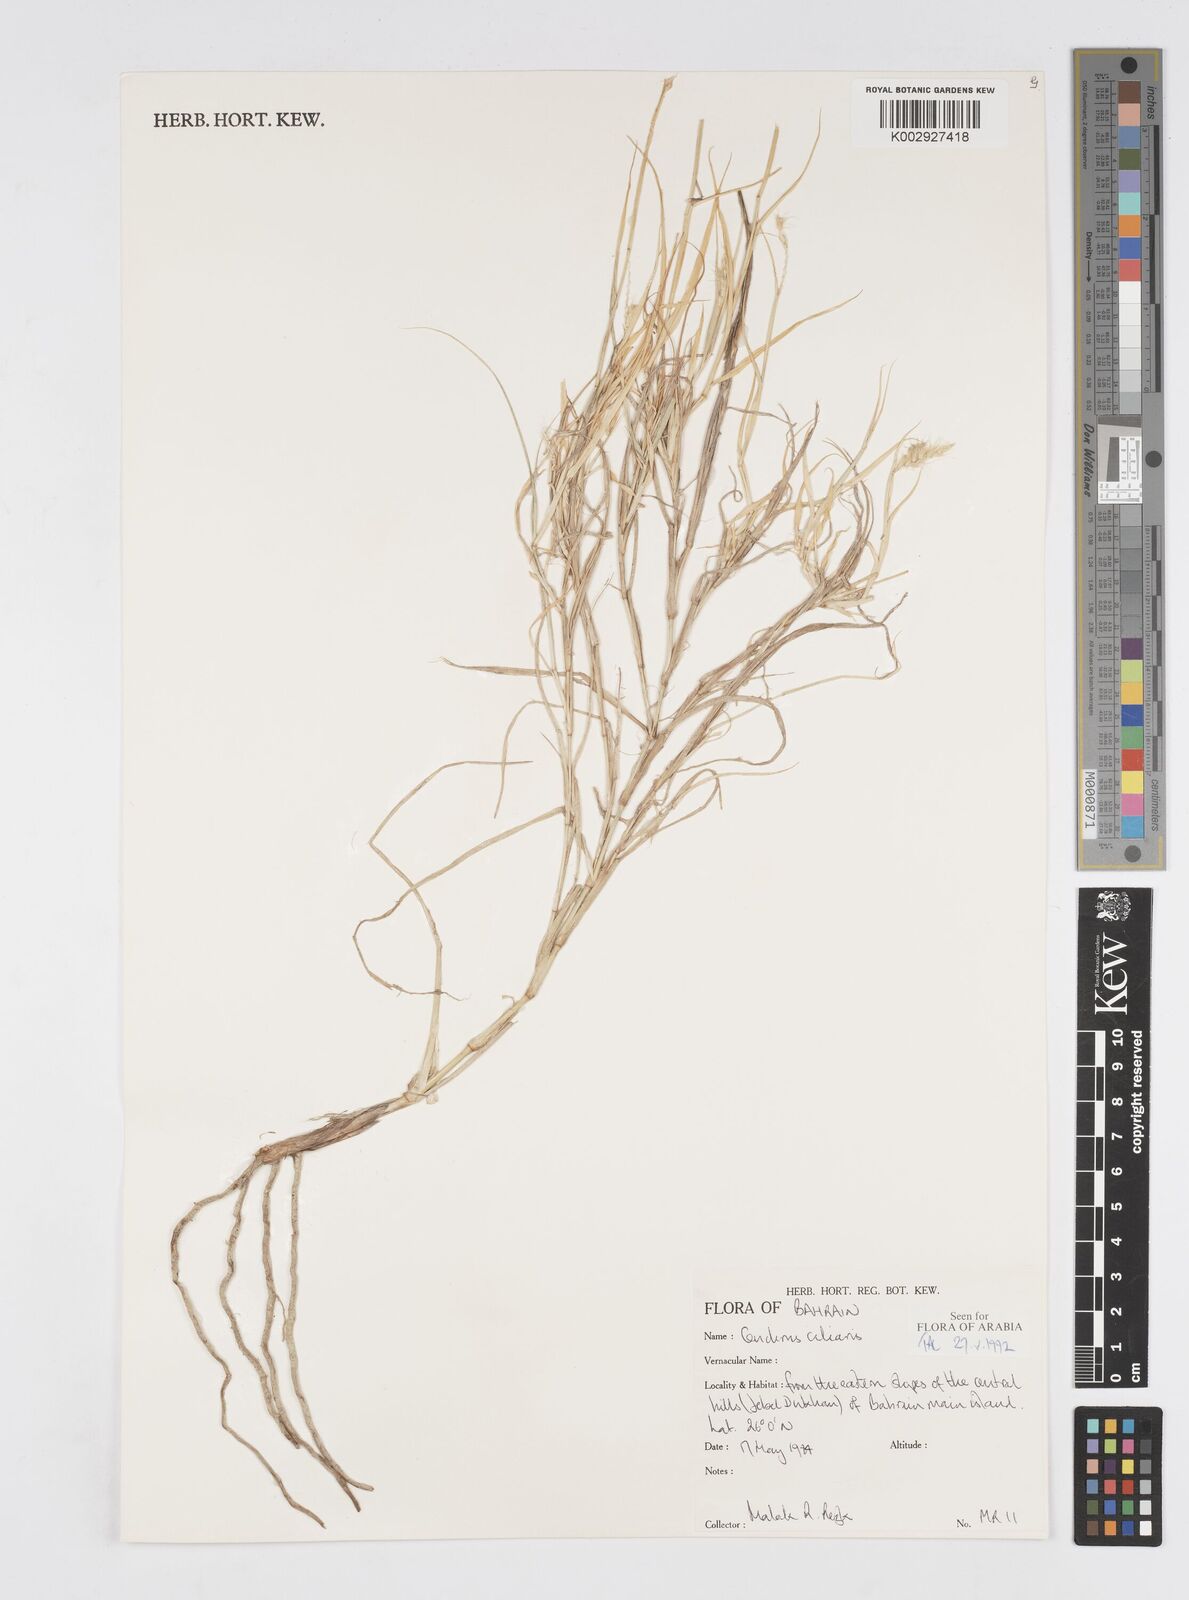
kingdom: Plantae
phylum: Tracheophyta
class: Liliopsida
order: Poales
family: Poaceae
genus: Cenchrus
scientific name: Cenchrus
